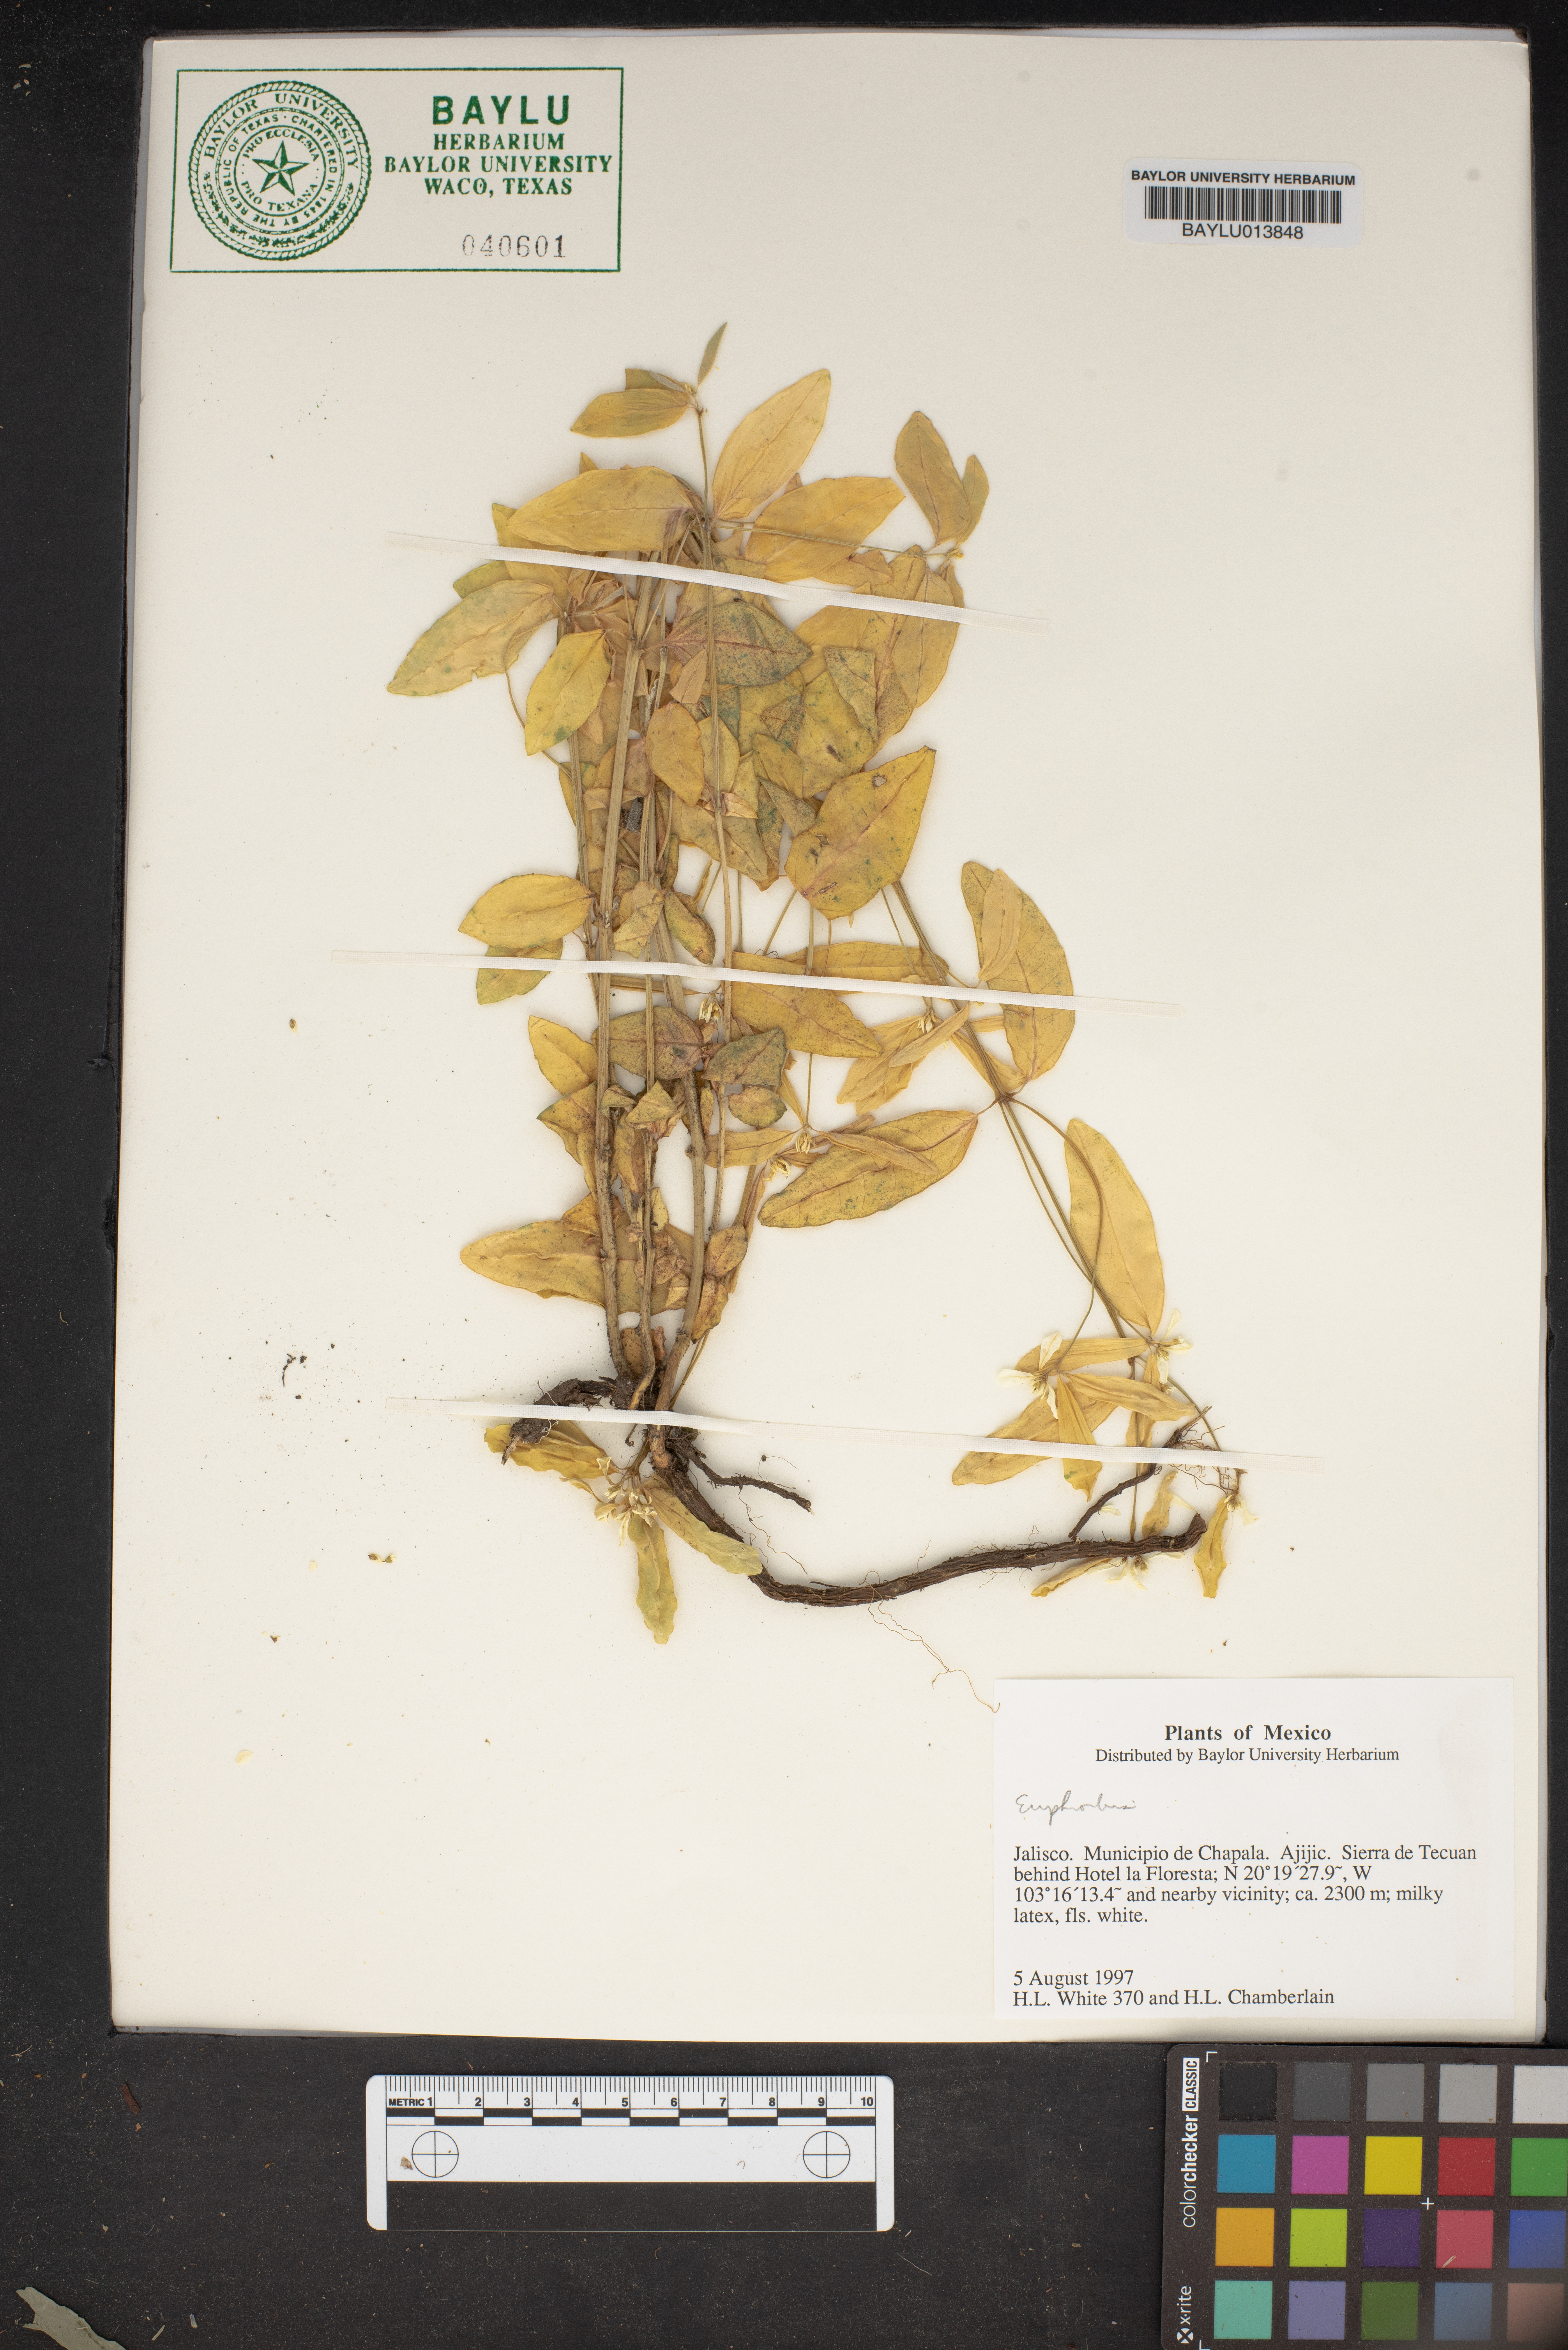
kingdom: Plantae
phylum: Tracheophyta
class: Magnoliopsida
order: Malpighiales
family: Euphorbiaceae
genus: Euphorbia
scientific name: Euphorbia
